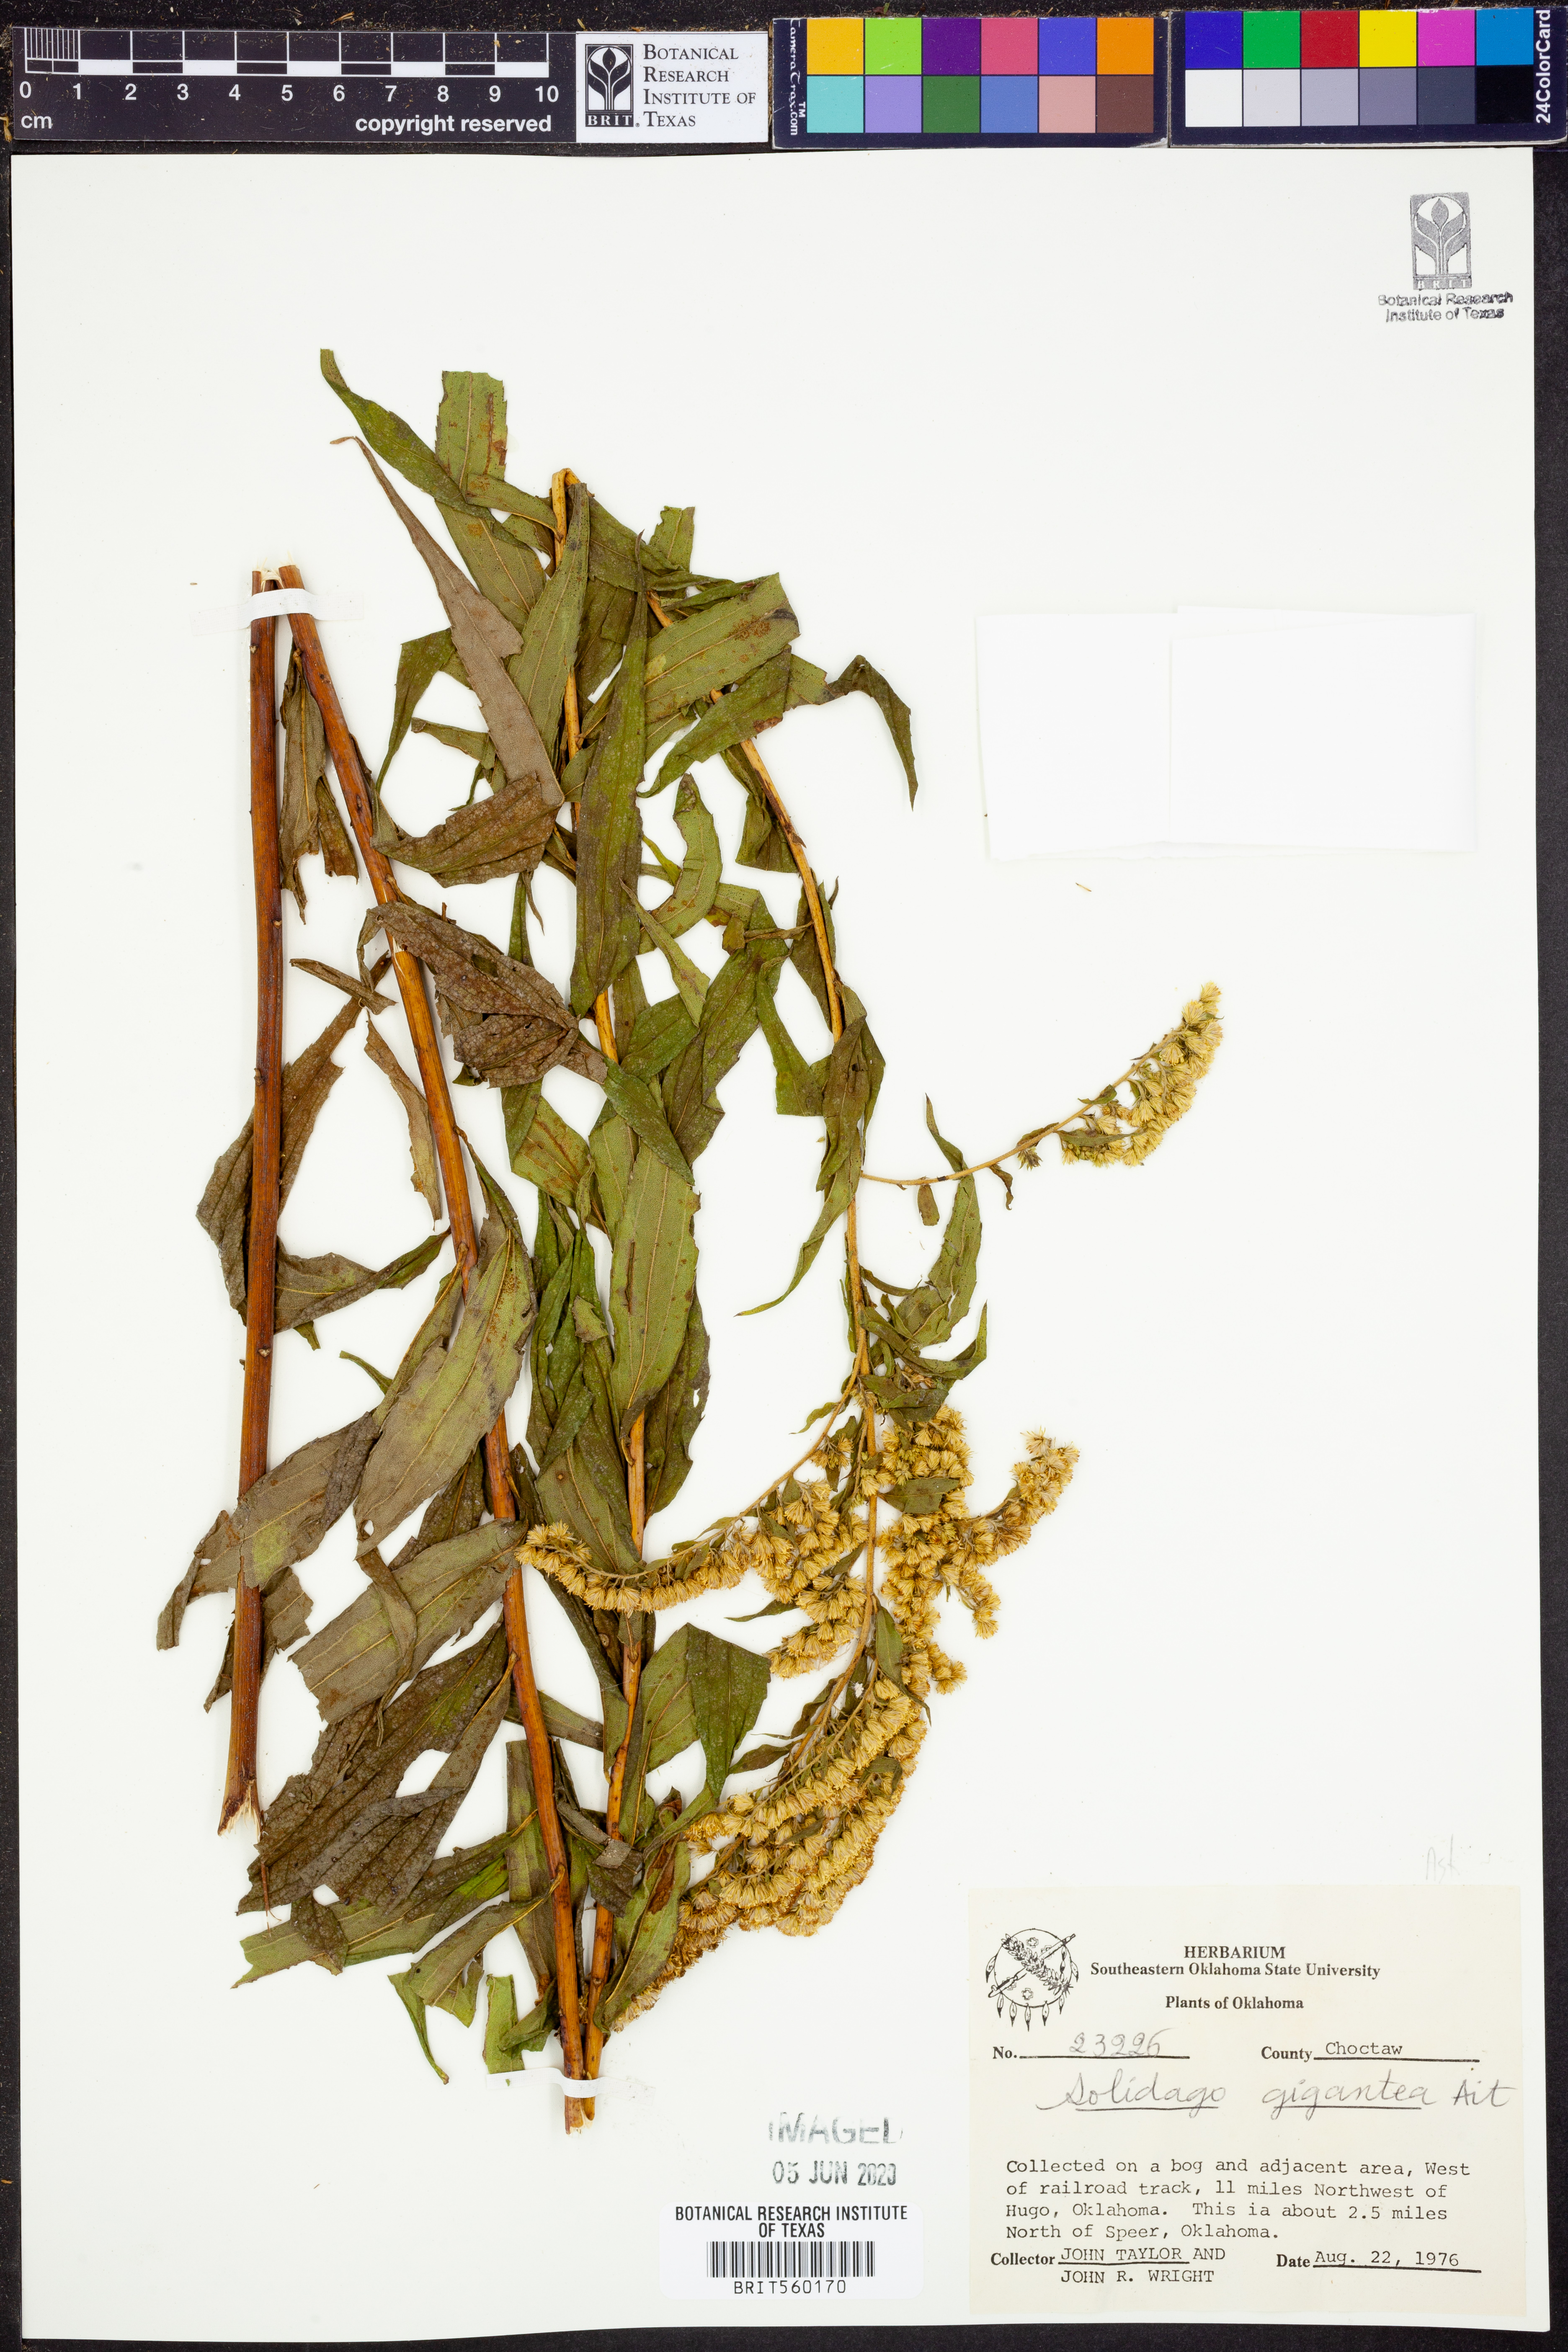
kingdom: Plantae
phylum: Tracheophyta
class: Magnoliopsida
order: Asterales
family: Asteraceae
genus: Solidago
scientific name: Solidago gigantea
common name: Giant goldenrod
